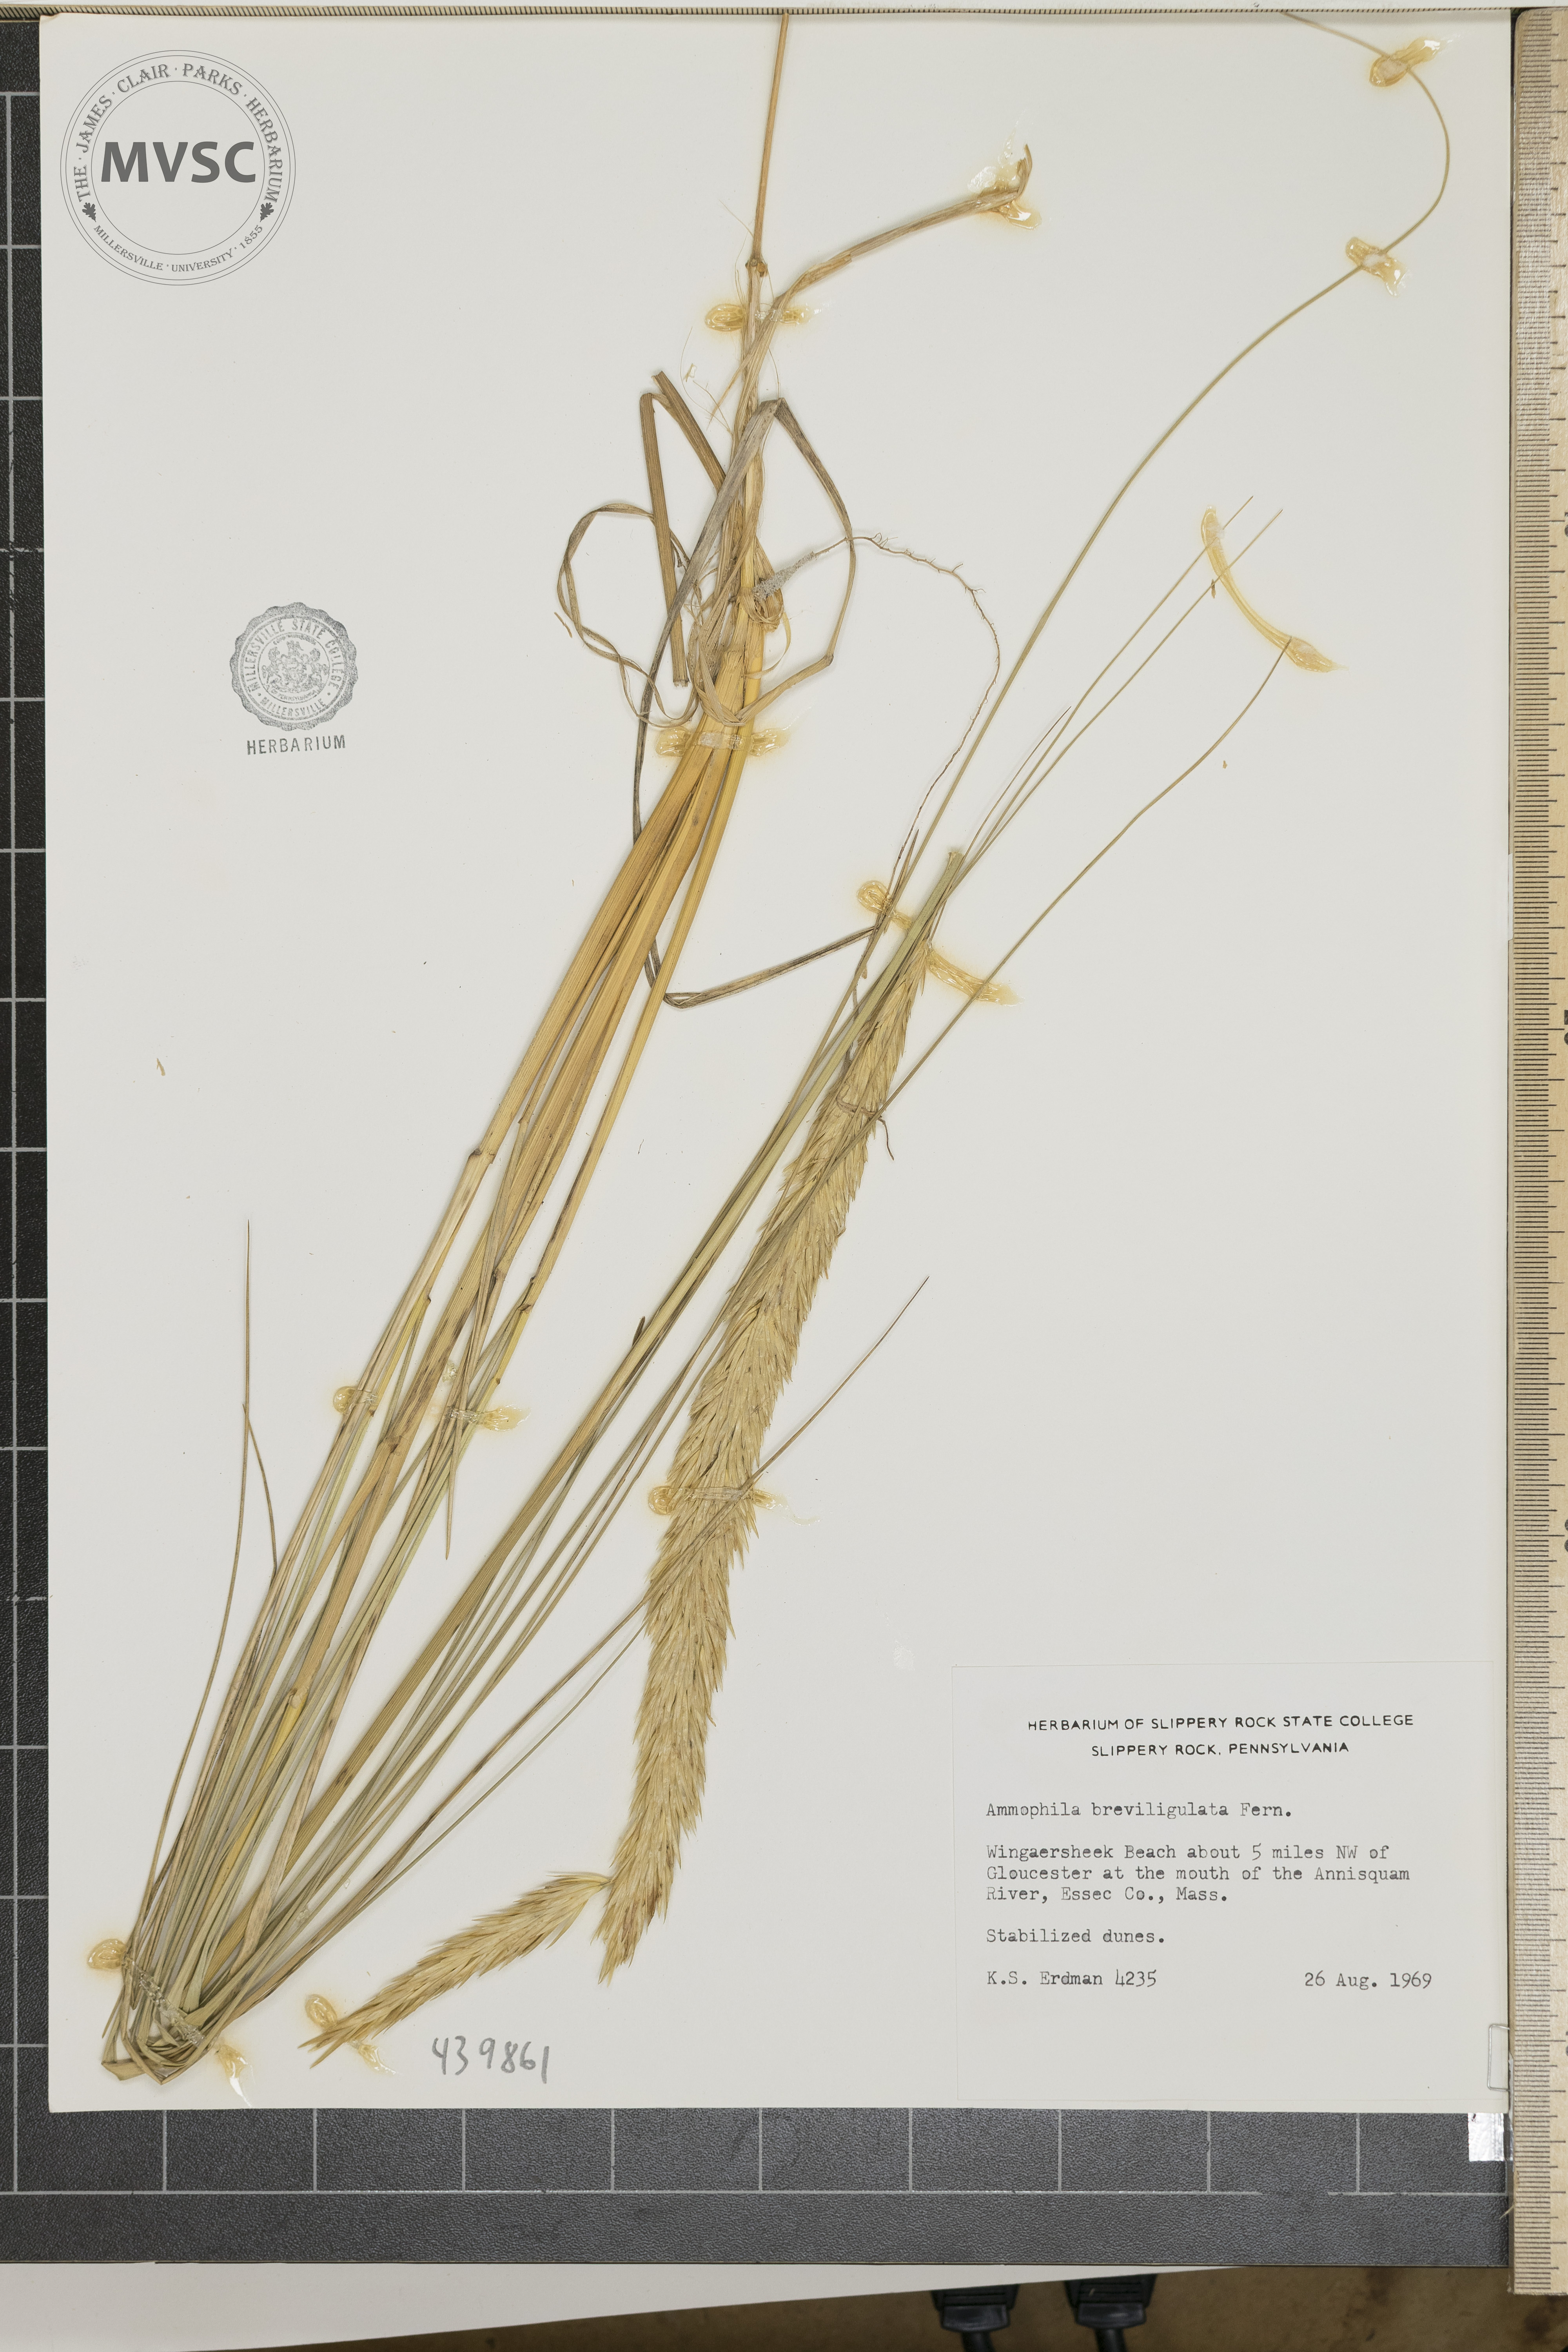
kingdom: Plantae
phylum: Tracheophyta
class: Liliopsida
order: Poales
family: Poaceae
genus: Calamagrostis
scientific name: Calamagrostis breviligulata
